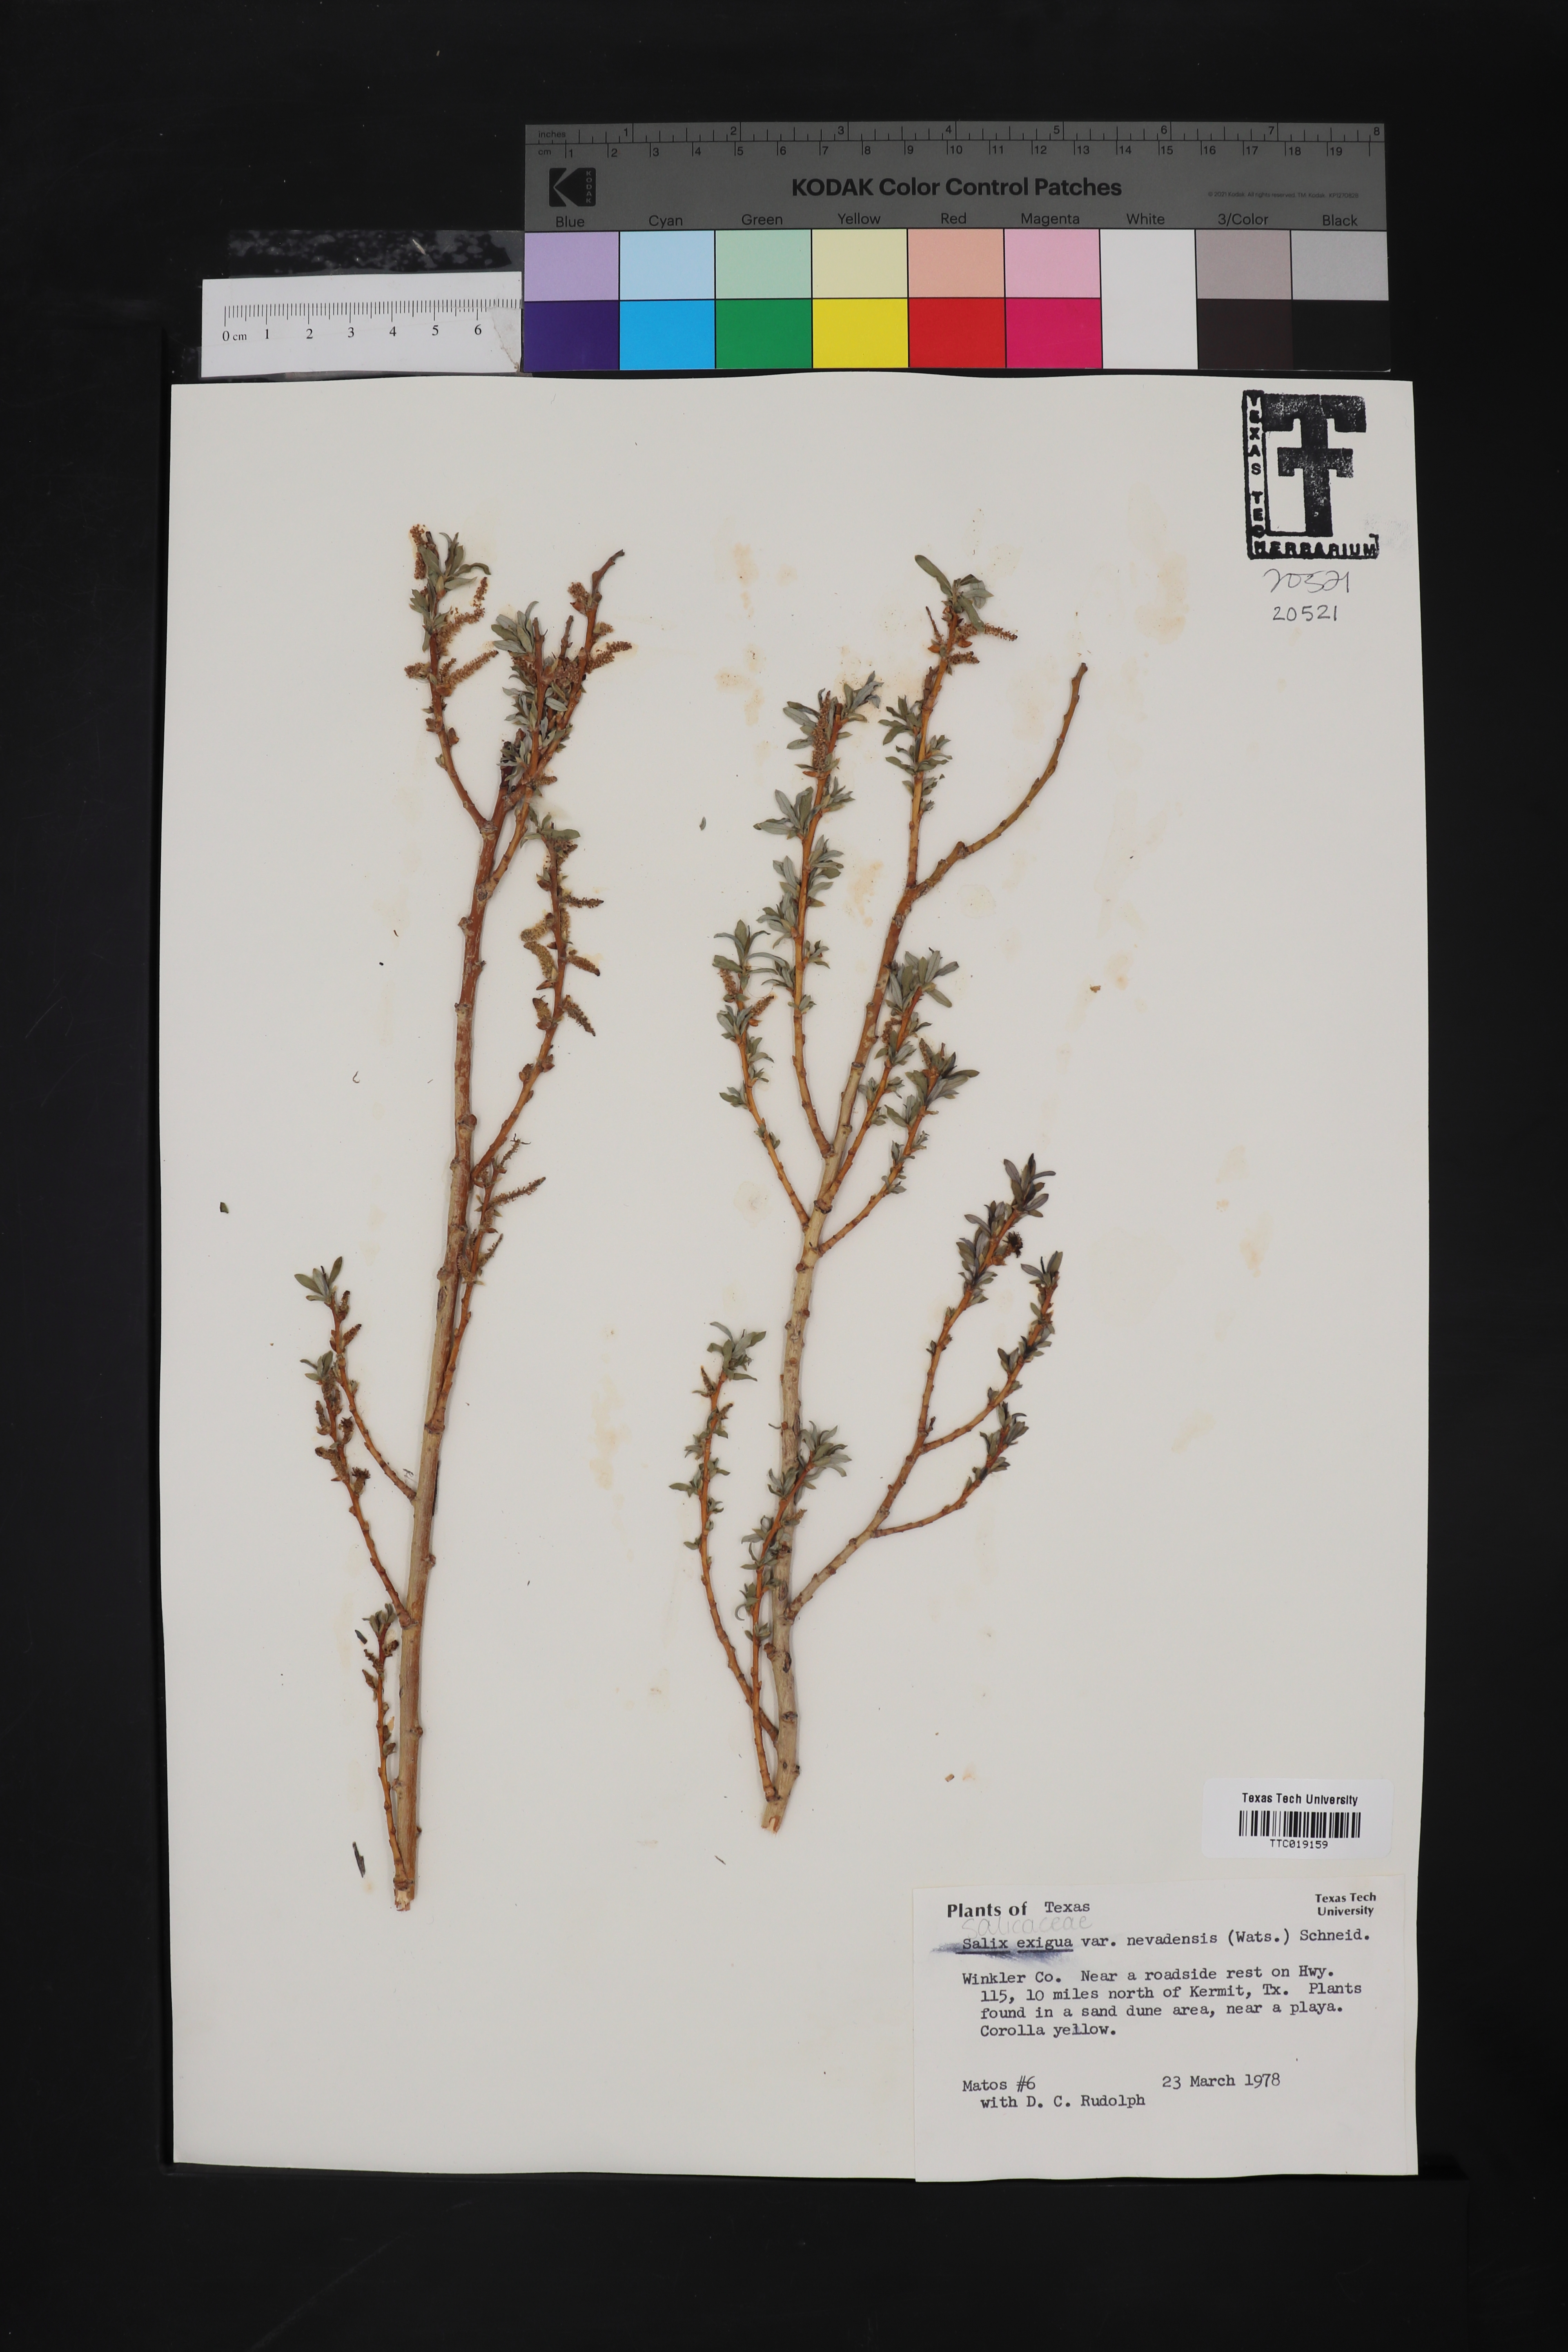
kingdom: Plantae
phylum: Tracheophyta
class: Magnoliopsida
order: Malpighiales
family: Salicaceae
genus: Salix
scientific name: Salix exigua
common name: Coyote willow
